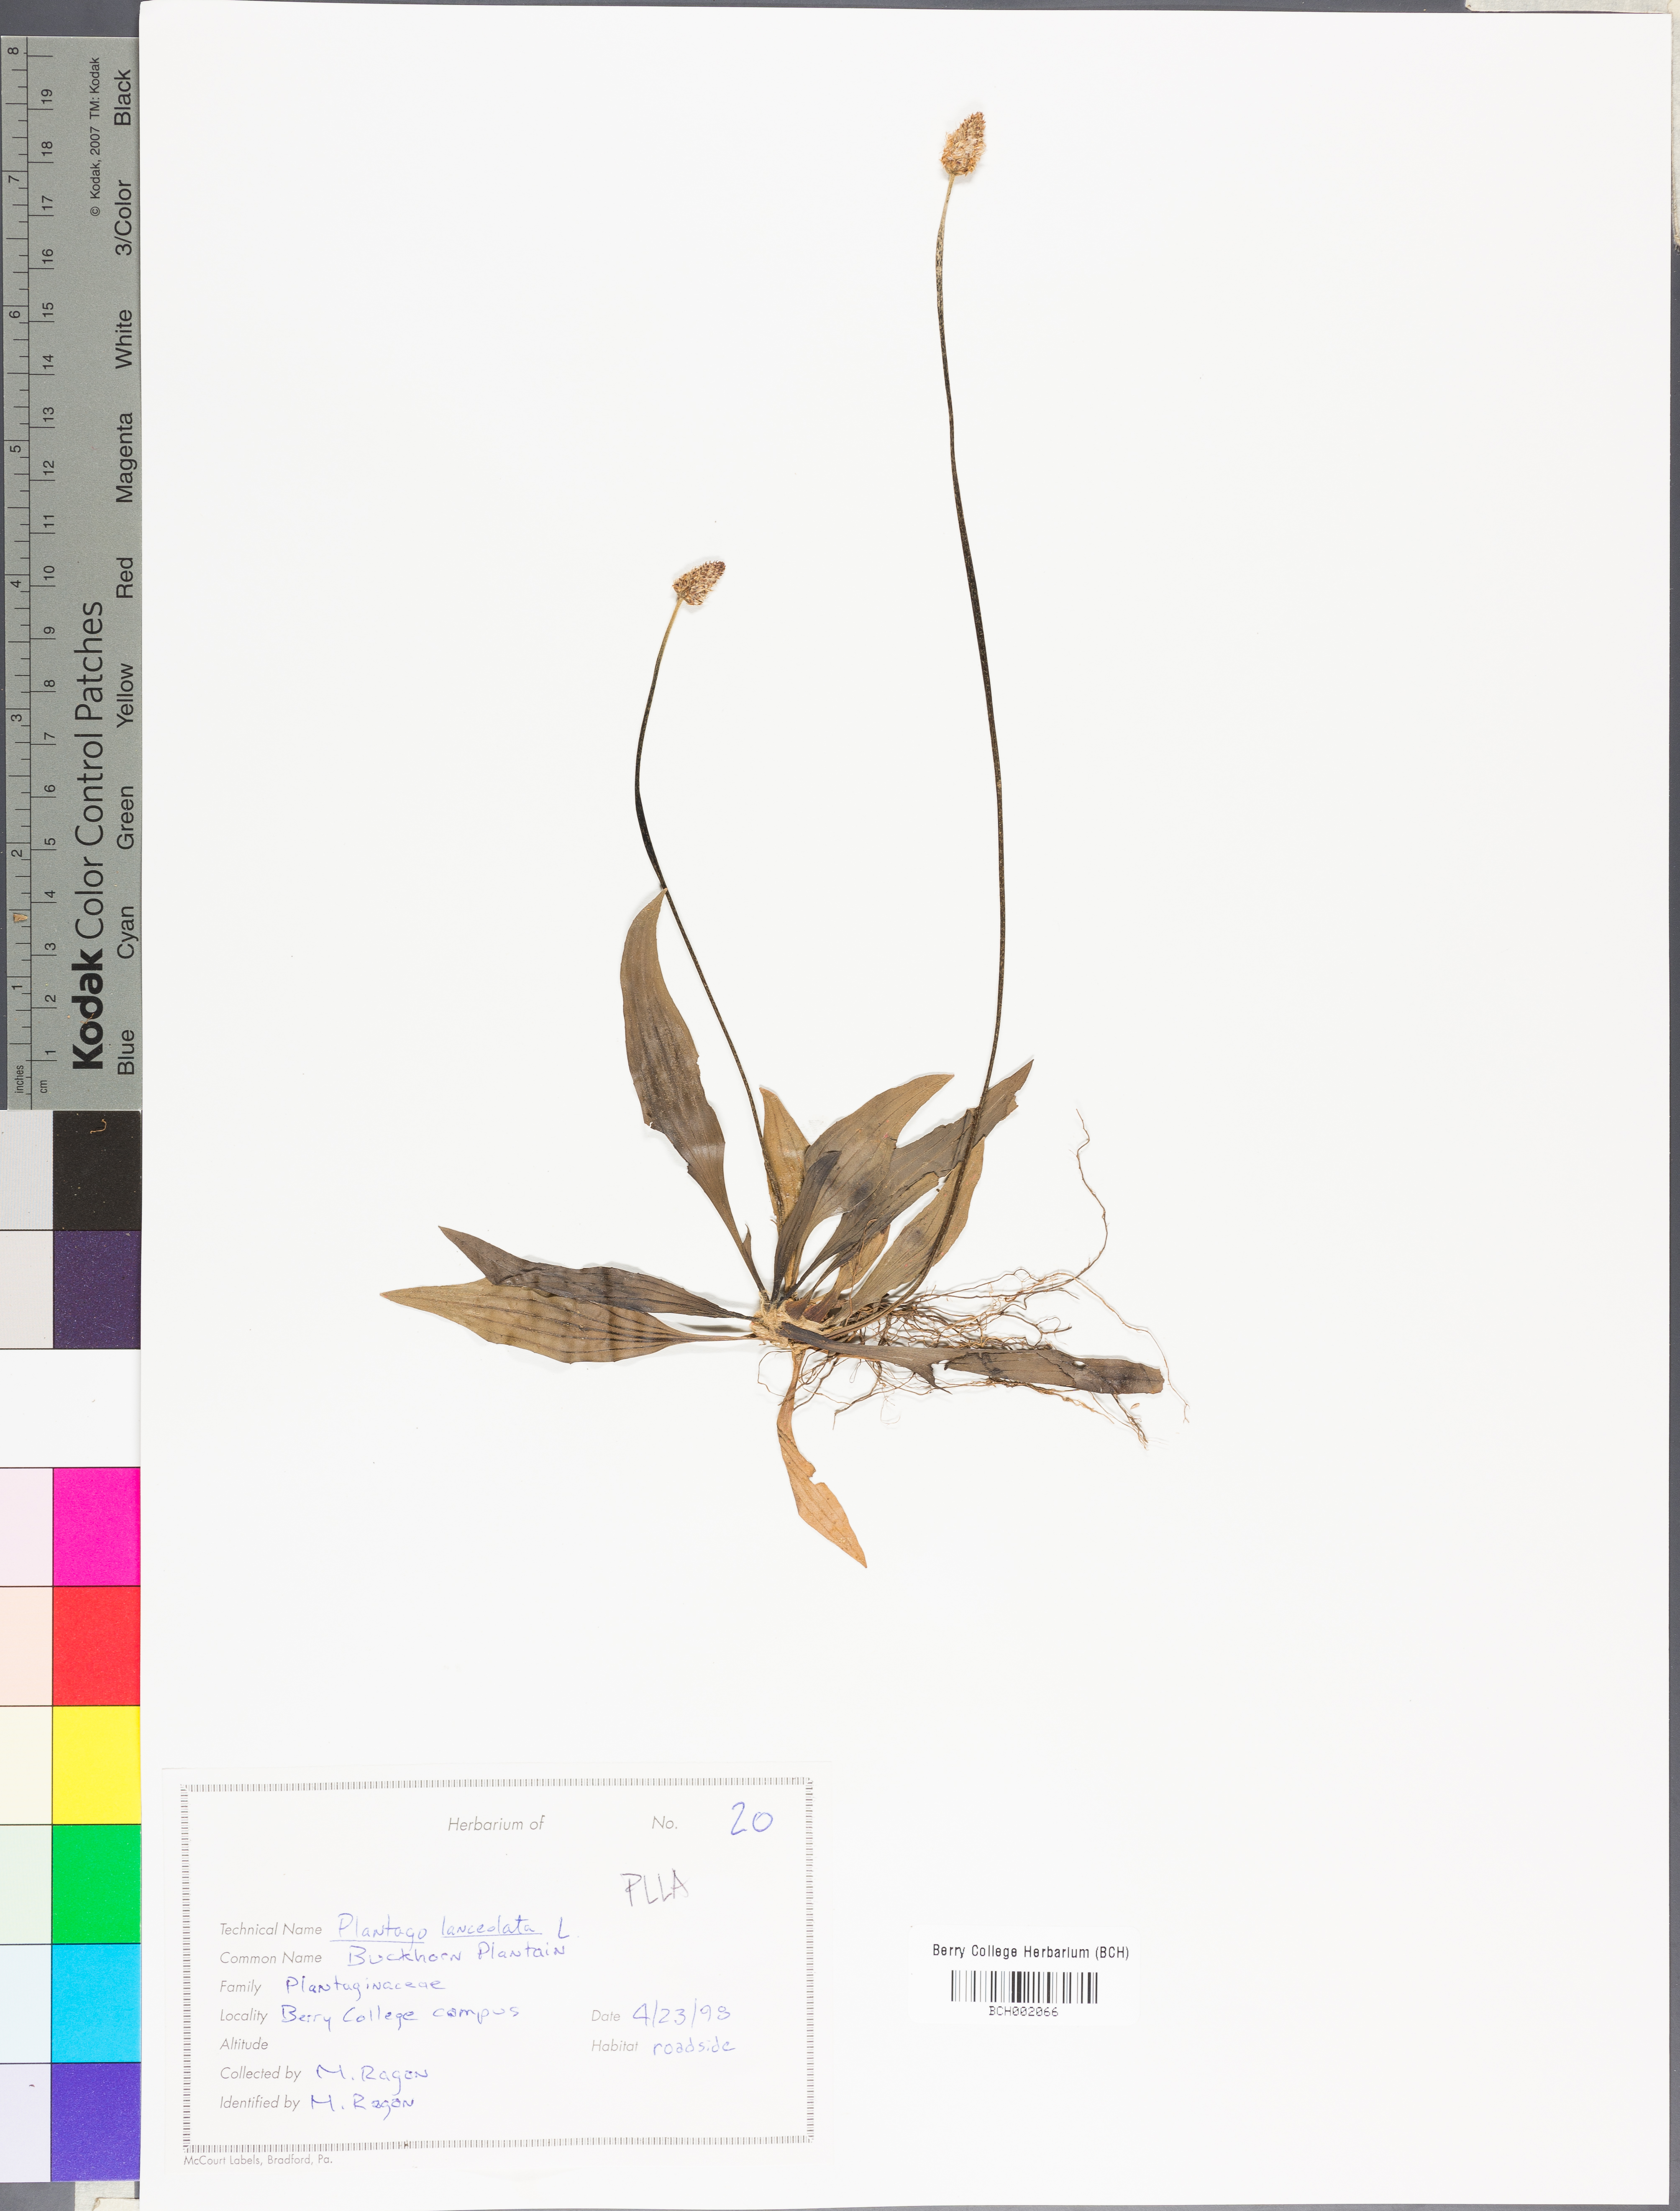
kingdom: Plantae
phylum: Tracheophyta
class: Magnoliopsida
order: Lamiales
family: Plantaginaceae
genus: Plantago
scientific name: Plantago lanceolata
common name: Ribwort plantain
